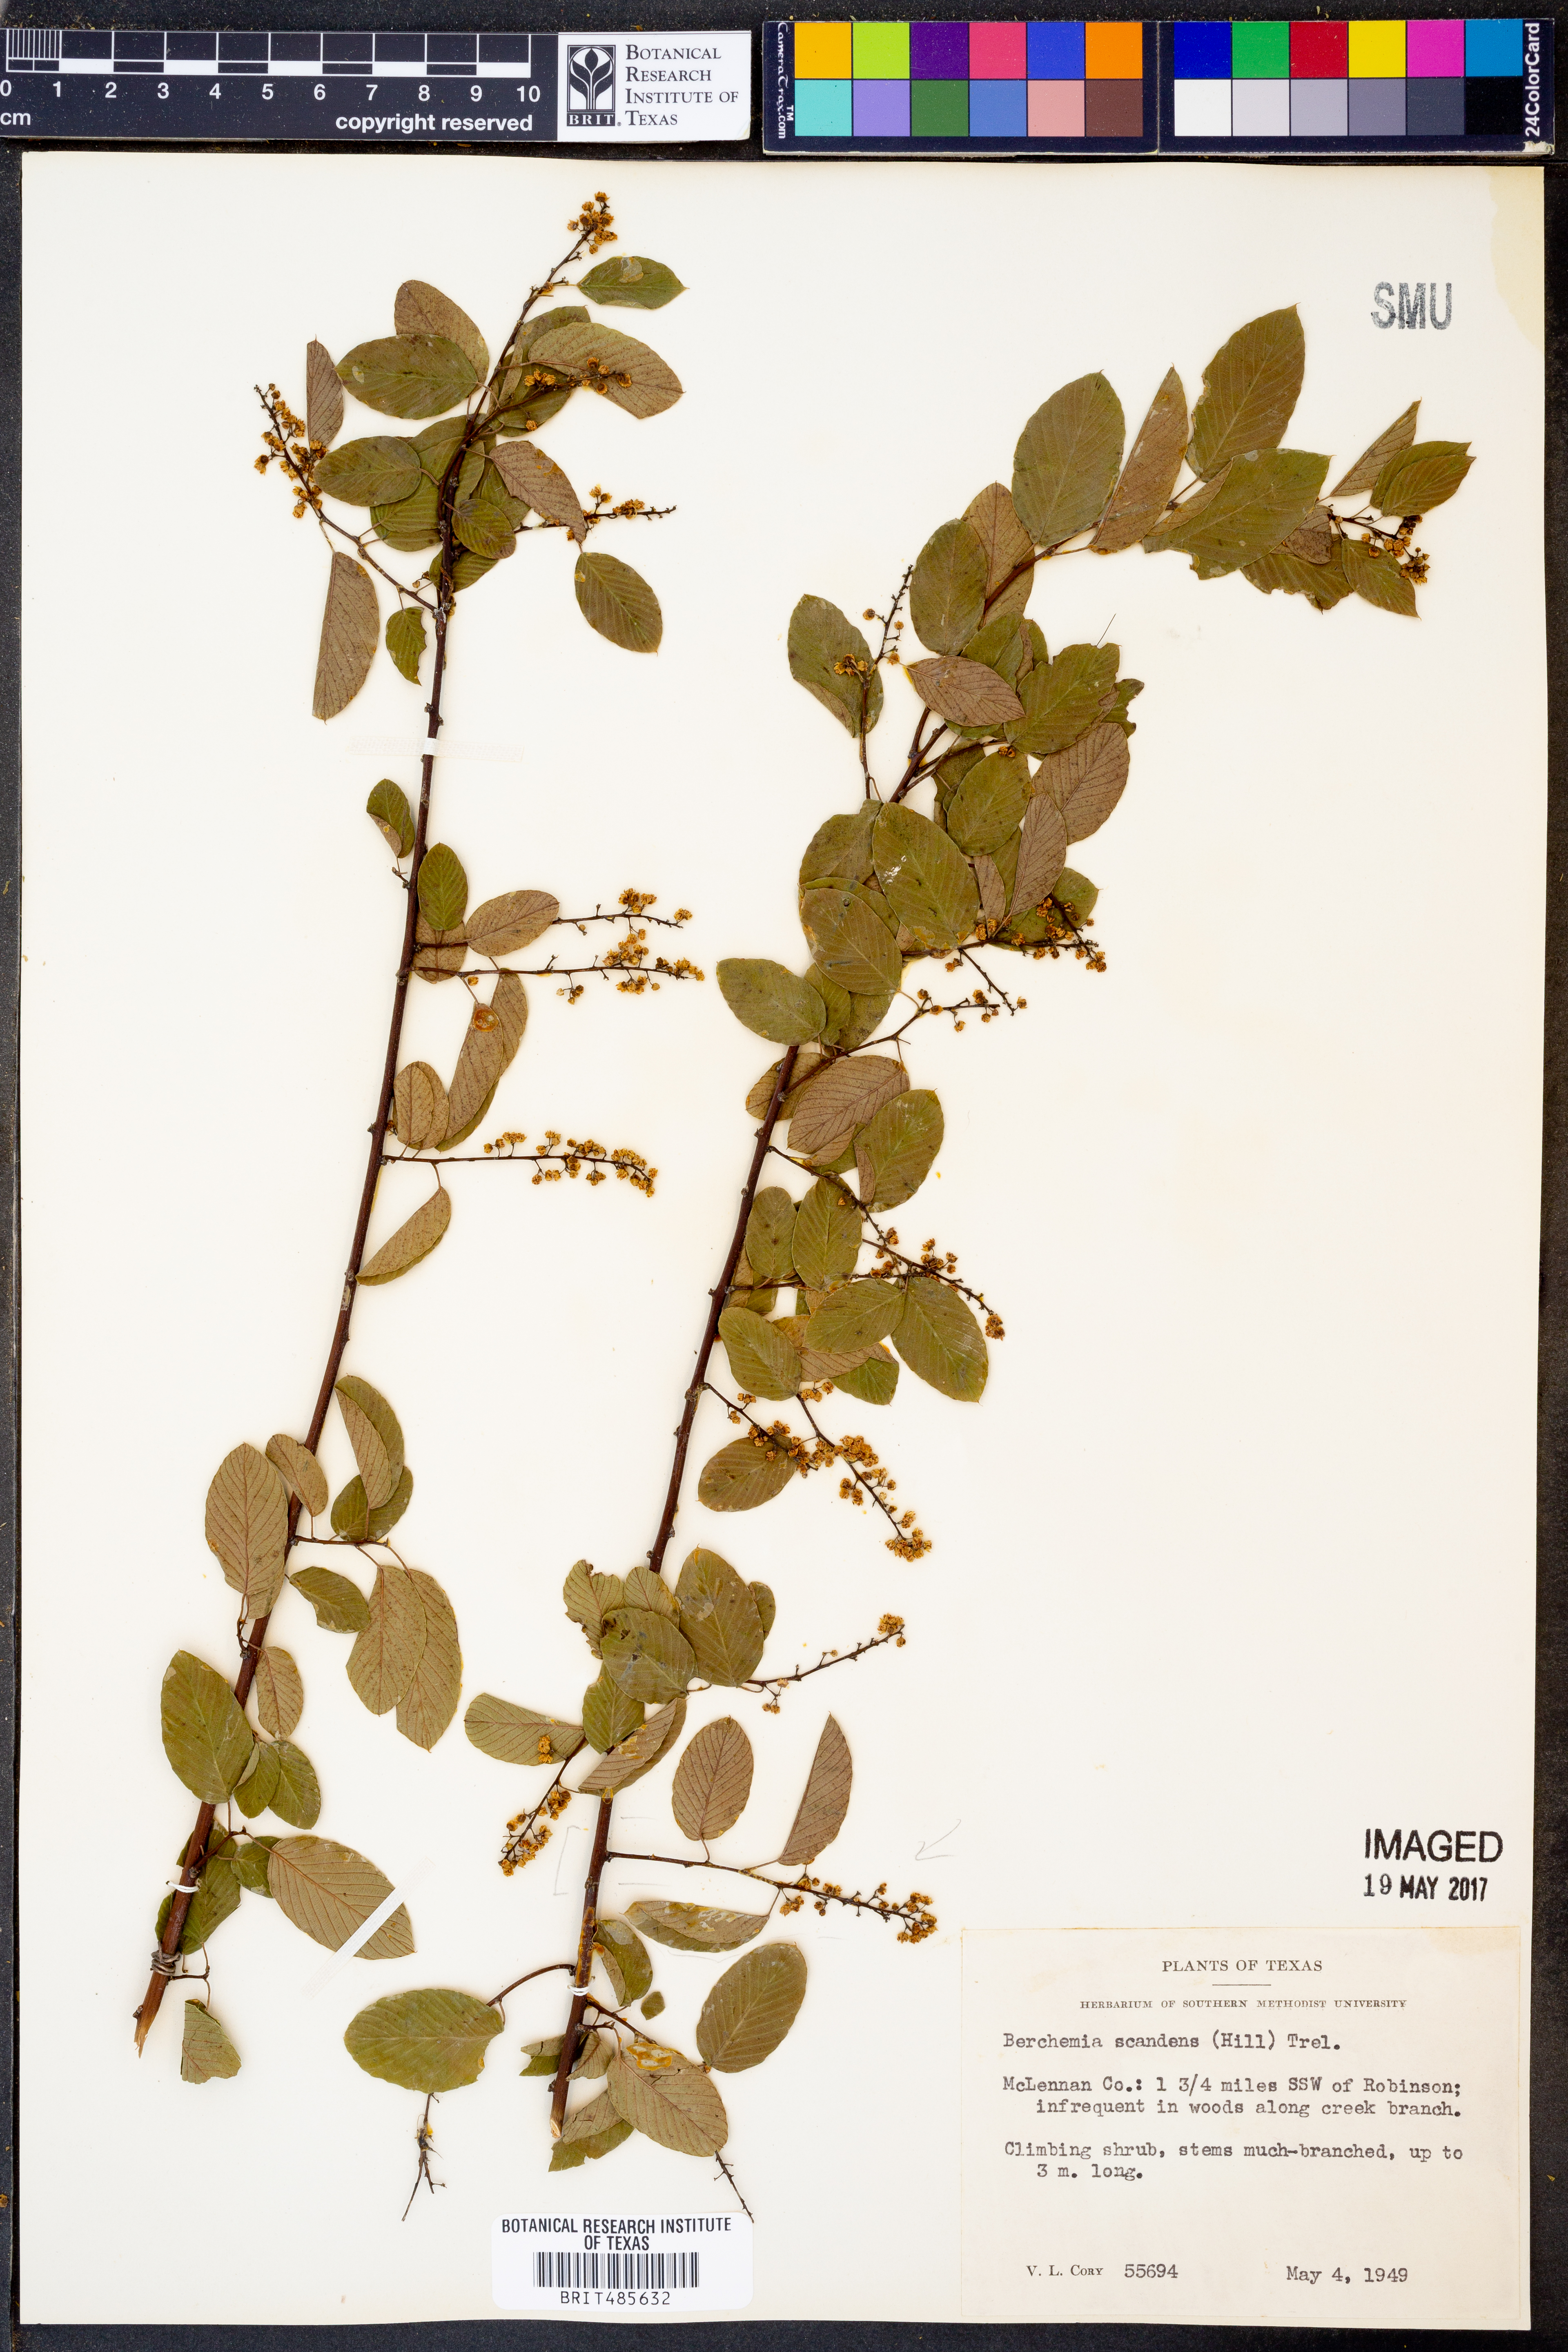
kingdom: Plantae
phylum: Tracheophyta
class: Magnoliopsida
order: Rosales
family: Rhamnaceae
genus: Berchemia
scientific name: Berchemia scandens
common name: Supplejack
